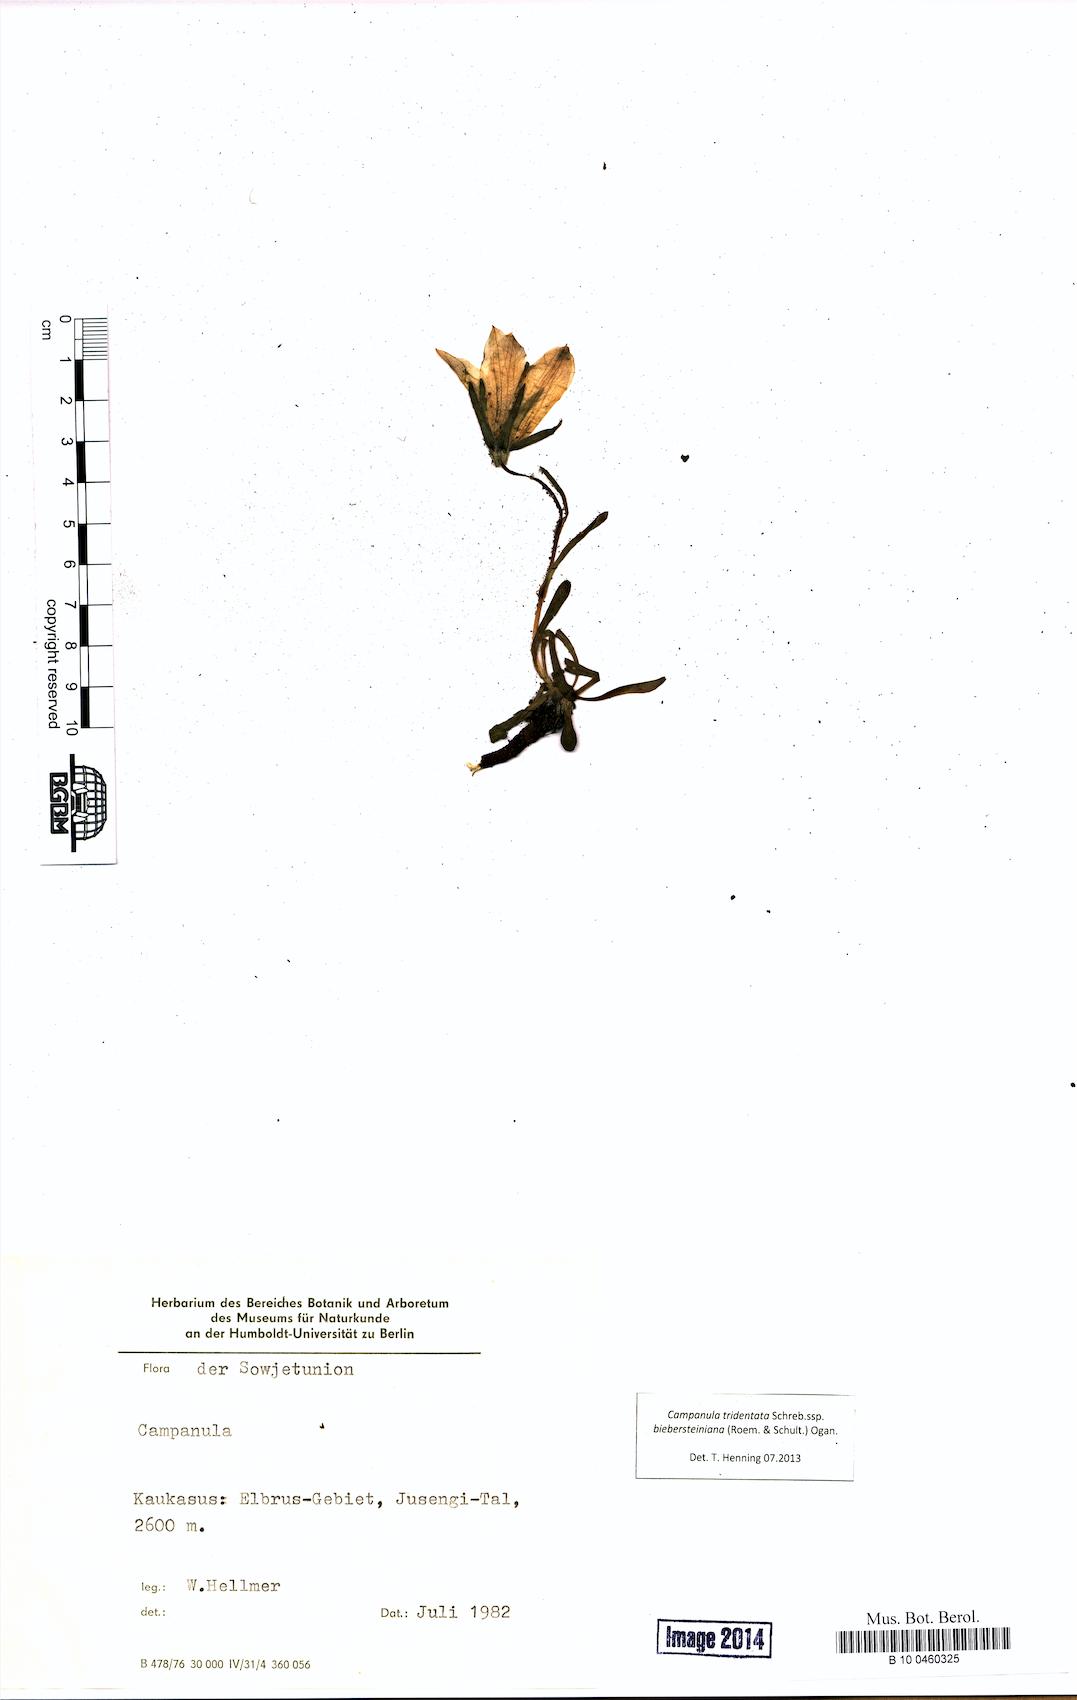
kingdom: Plantae
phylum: Tracheophyta
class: Magnoliopsida
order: Asterales
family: Campanulaceae
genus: Campanula
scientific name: Campanula tridentata
